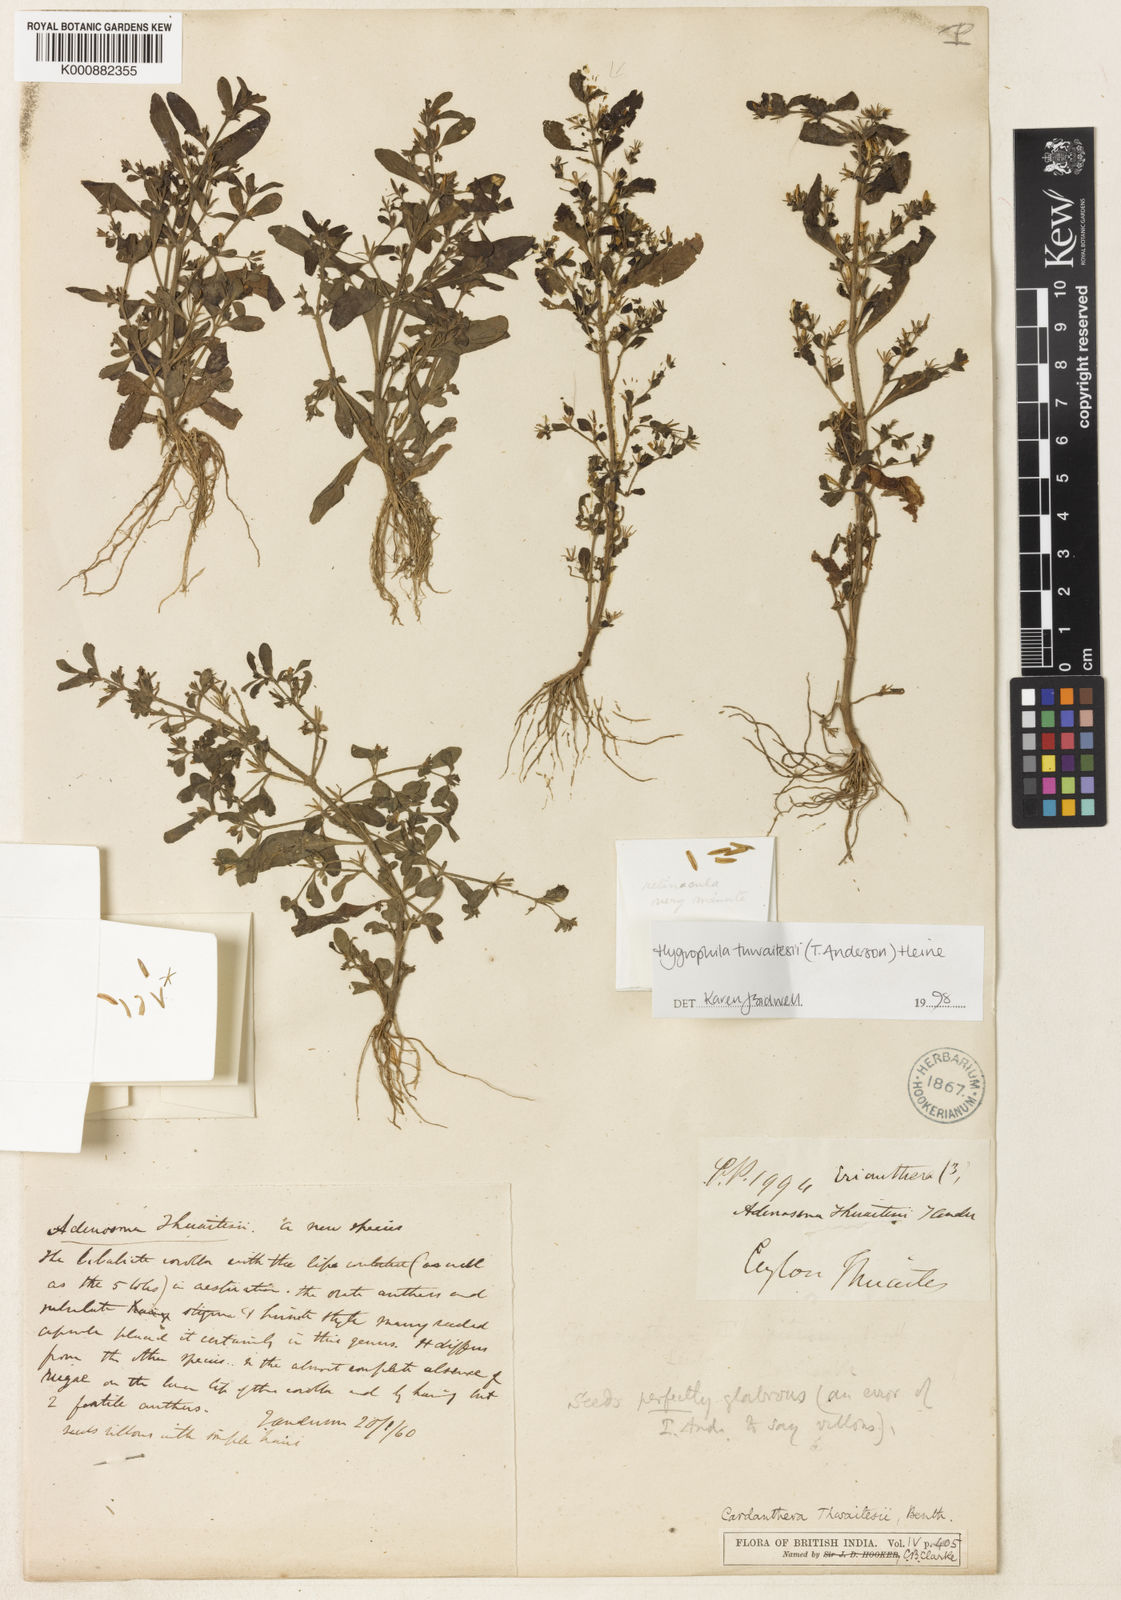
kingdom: Plantae
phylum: Tracheophyta
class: Magnoliopsida
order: Lamiales
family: Acanthaceae
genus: Hygrophila
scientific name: Hygrophila thwaitesii
